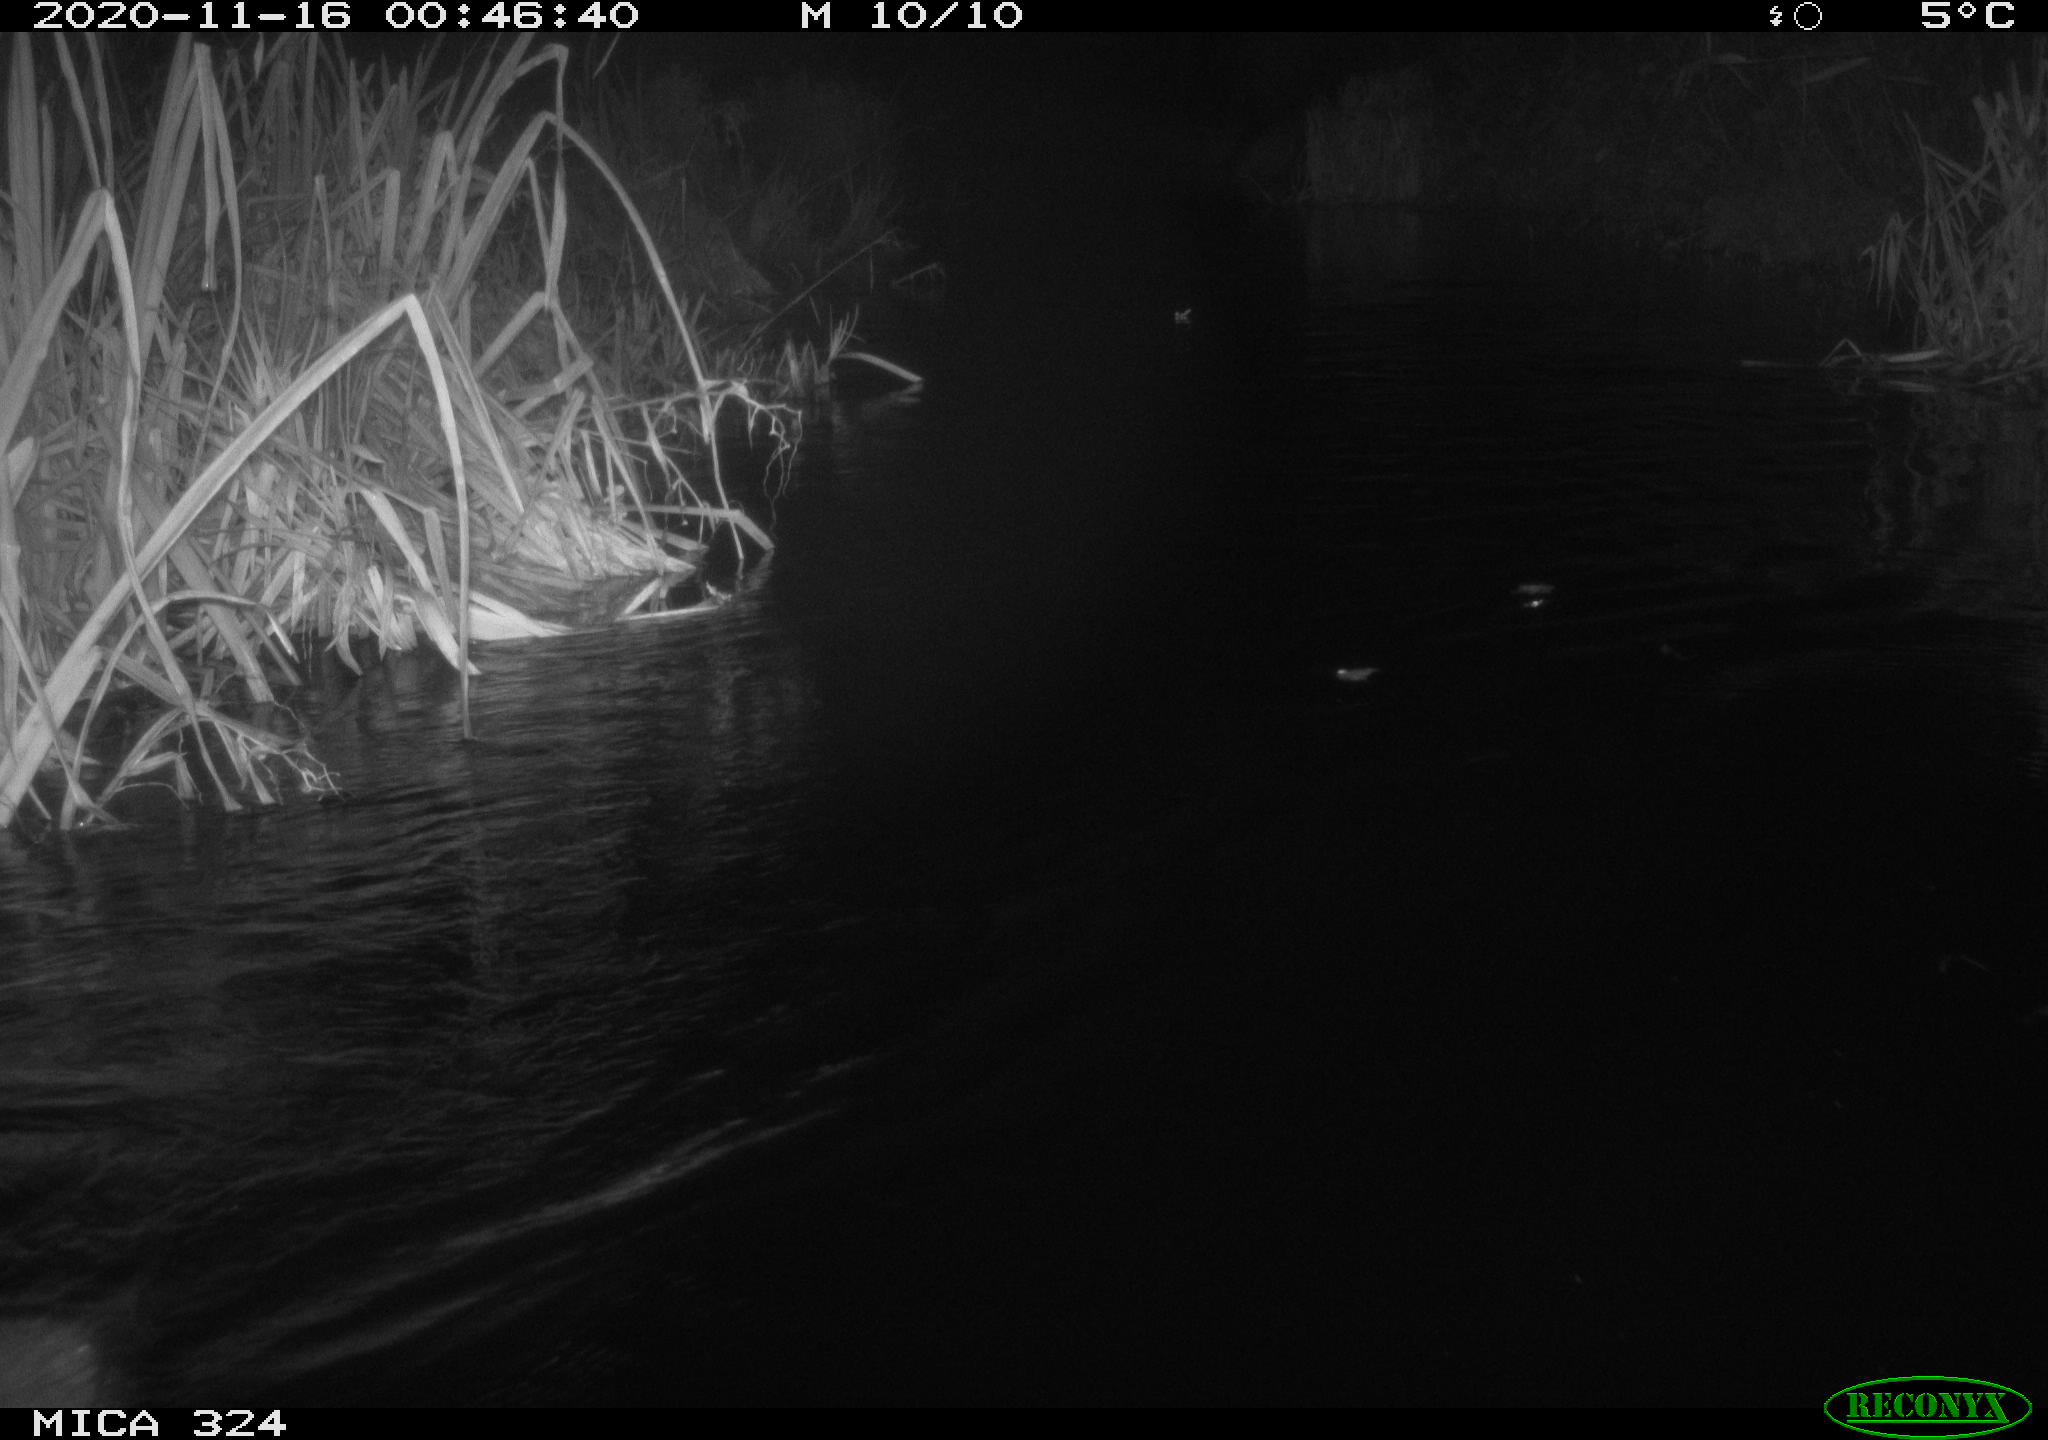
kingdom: Animalia
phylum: Chordata
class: Mammalia
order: Rodentia
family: Myocastoridae
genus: Myocastor
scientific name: Myocastor coypus
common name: Coypu
